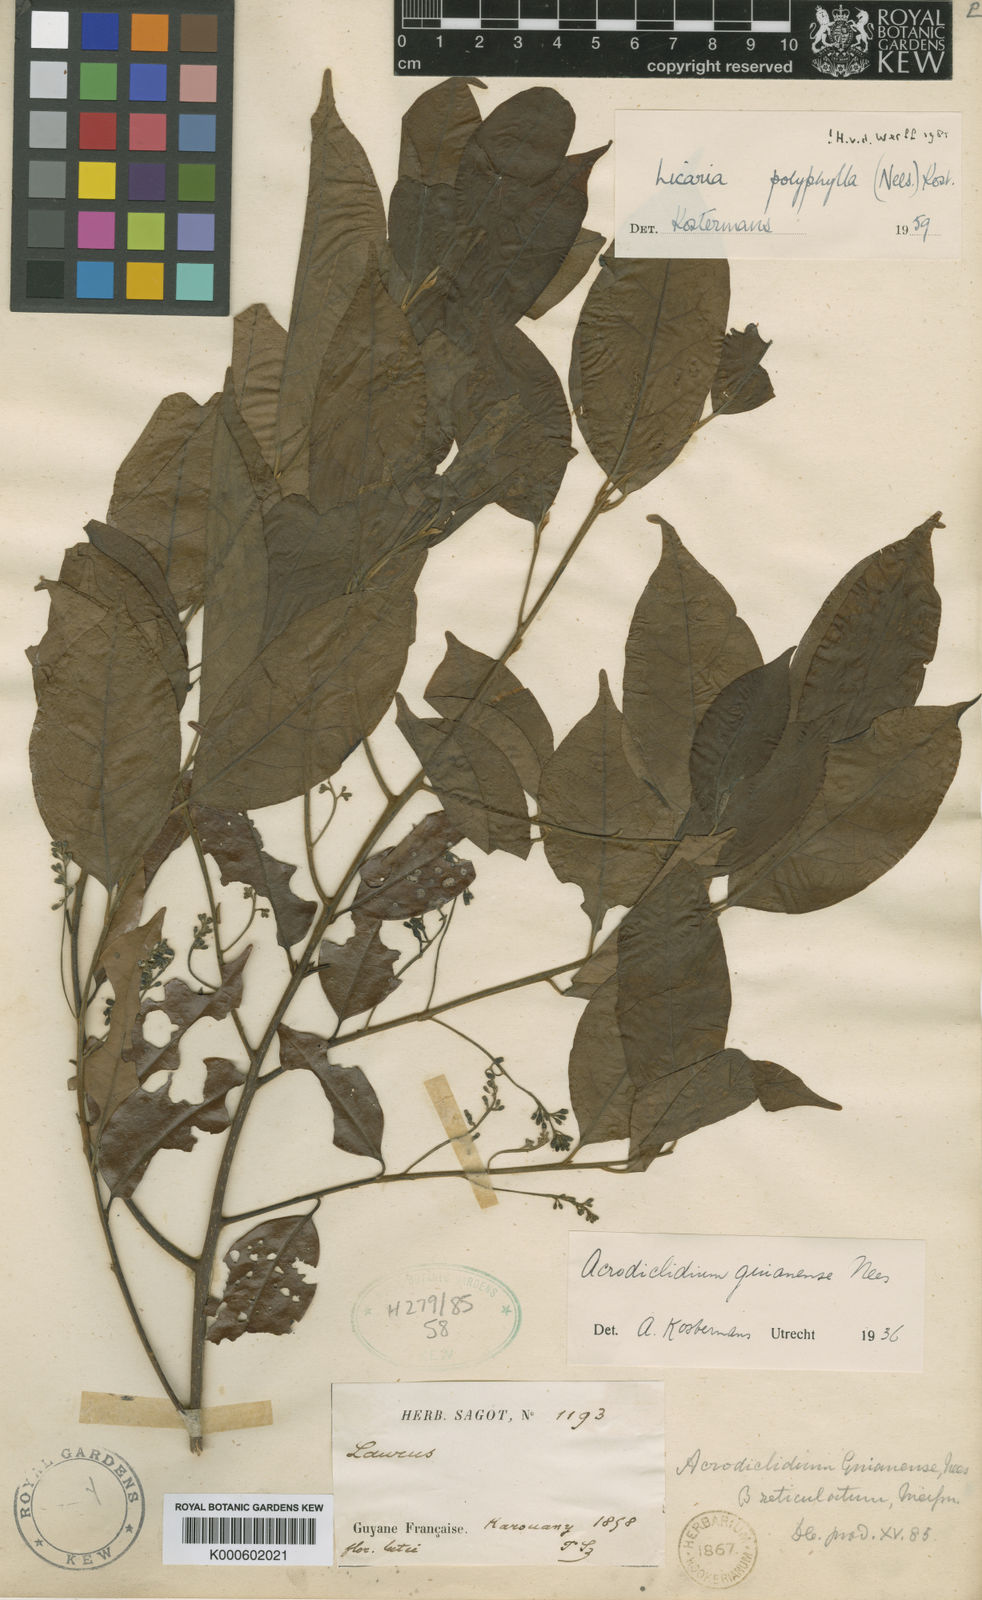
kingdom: Plantae
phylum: Tracheophyta
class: Magnoliopsida
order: Laurales
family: Lauraceae
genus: Licaria
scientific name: Licaria polyphylla
